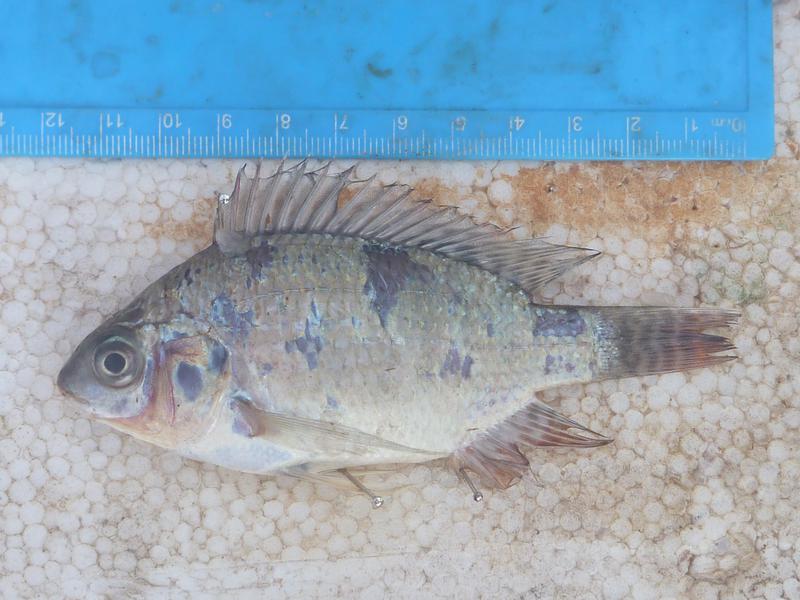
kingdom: Animalia
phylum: Chordata
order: Perciformes
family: Cichlidae
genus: Oreochromis
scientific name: Oreochromis niloticus
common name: Nile tilapia
